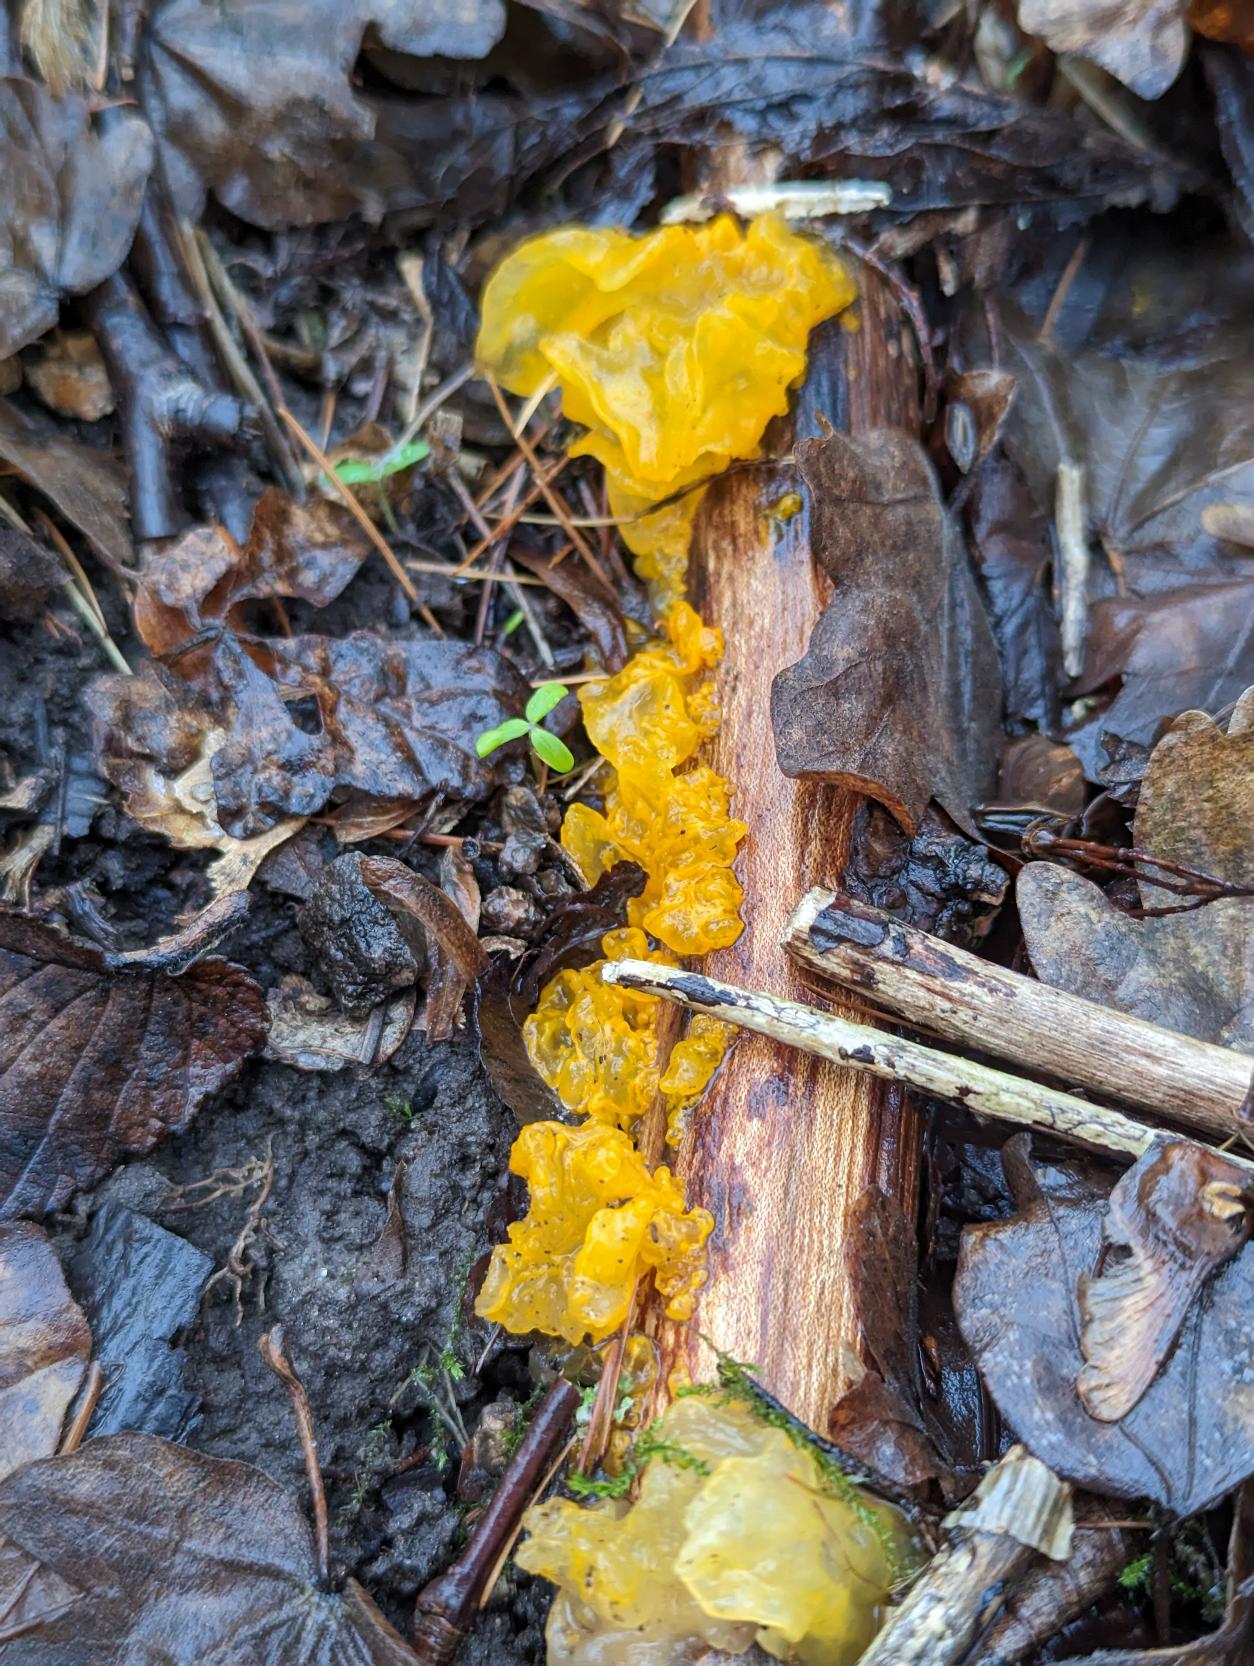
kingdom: Fungi
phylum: Basidiomycota
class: Tremellomycetes
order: Tremellales
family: Tremellaceae
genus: Tremella
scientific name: Tremella mesenterica
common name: Gul bævresvamp
